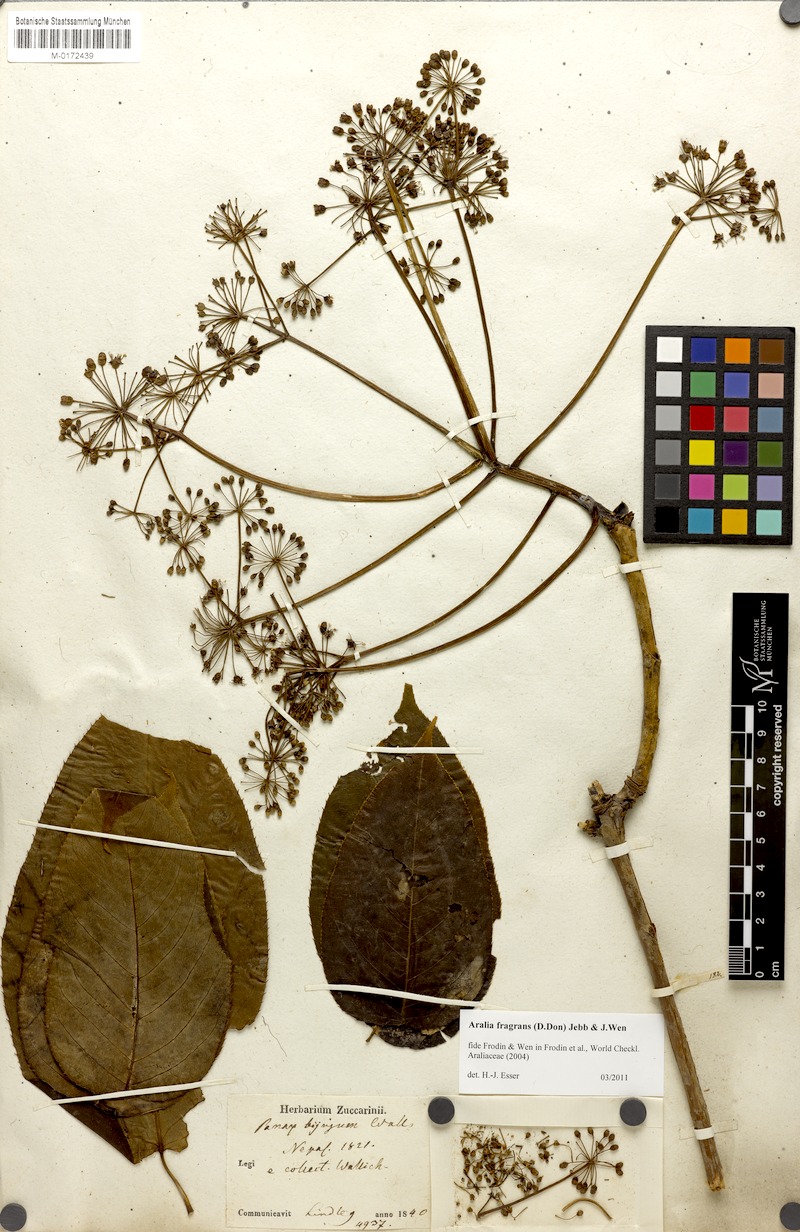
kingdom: Plantae
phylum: Tracheophyta
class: Magnoliopsida
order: Apiales
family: Araliaceae
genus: Aralia
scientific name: Aralia leschenaultii
